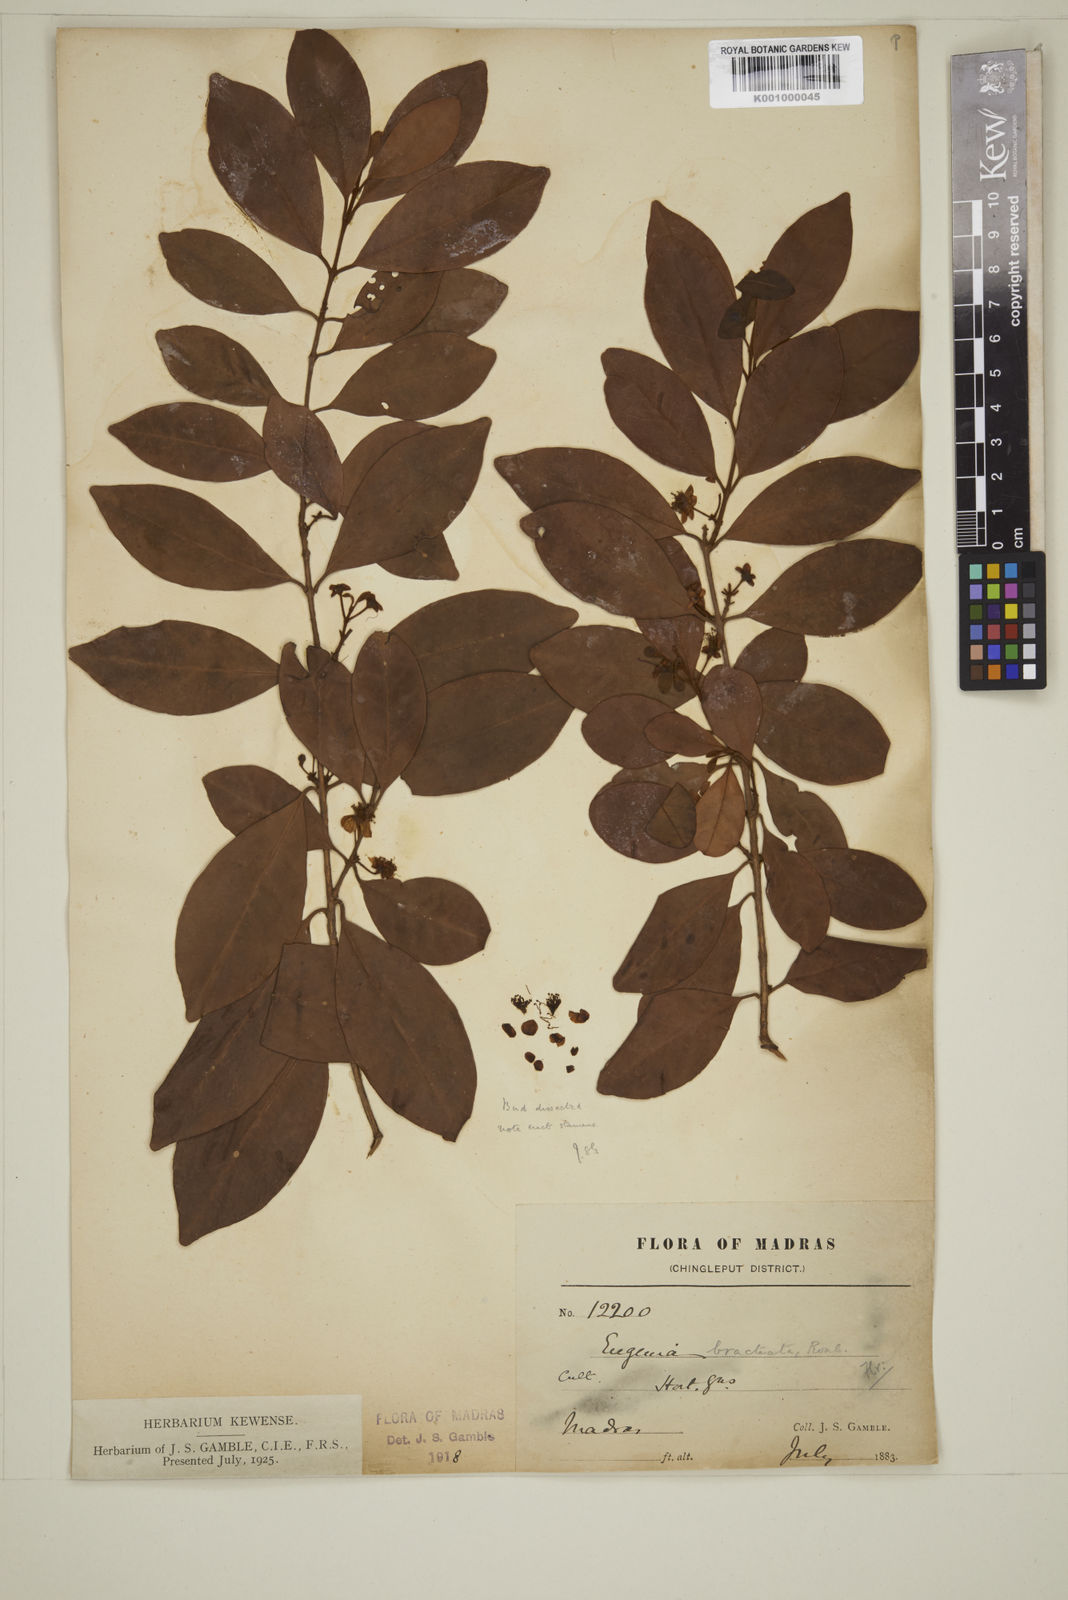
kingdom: Plantae
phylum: Tracheophyta
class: Magnoliopsida
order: Myrtales
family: Myrtaceae
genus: Myrcia
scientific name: Myrcia bracteata
